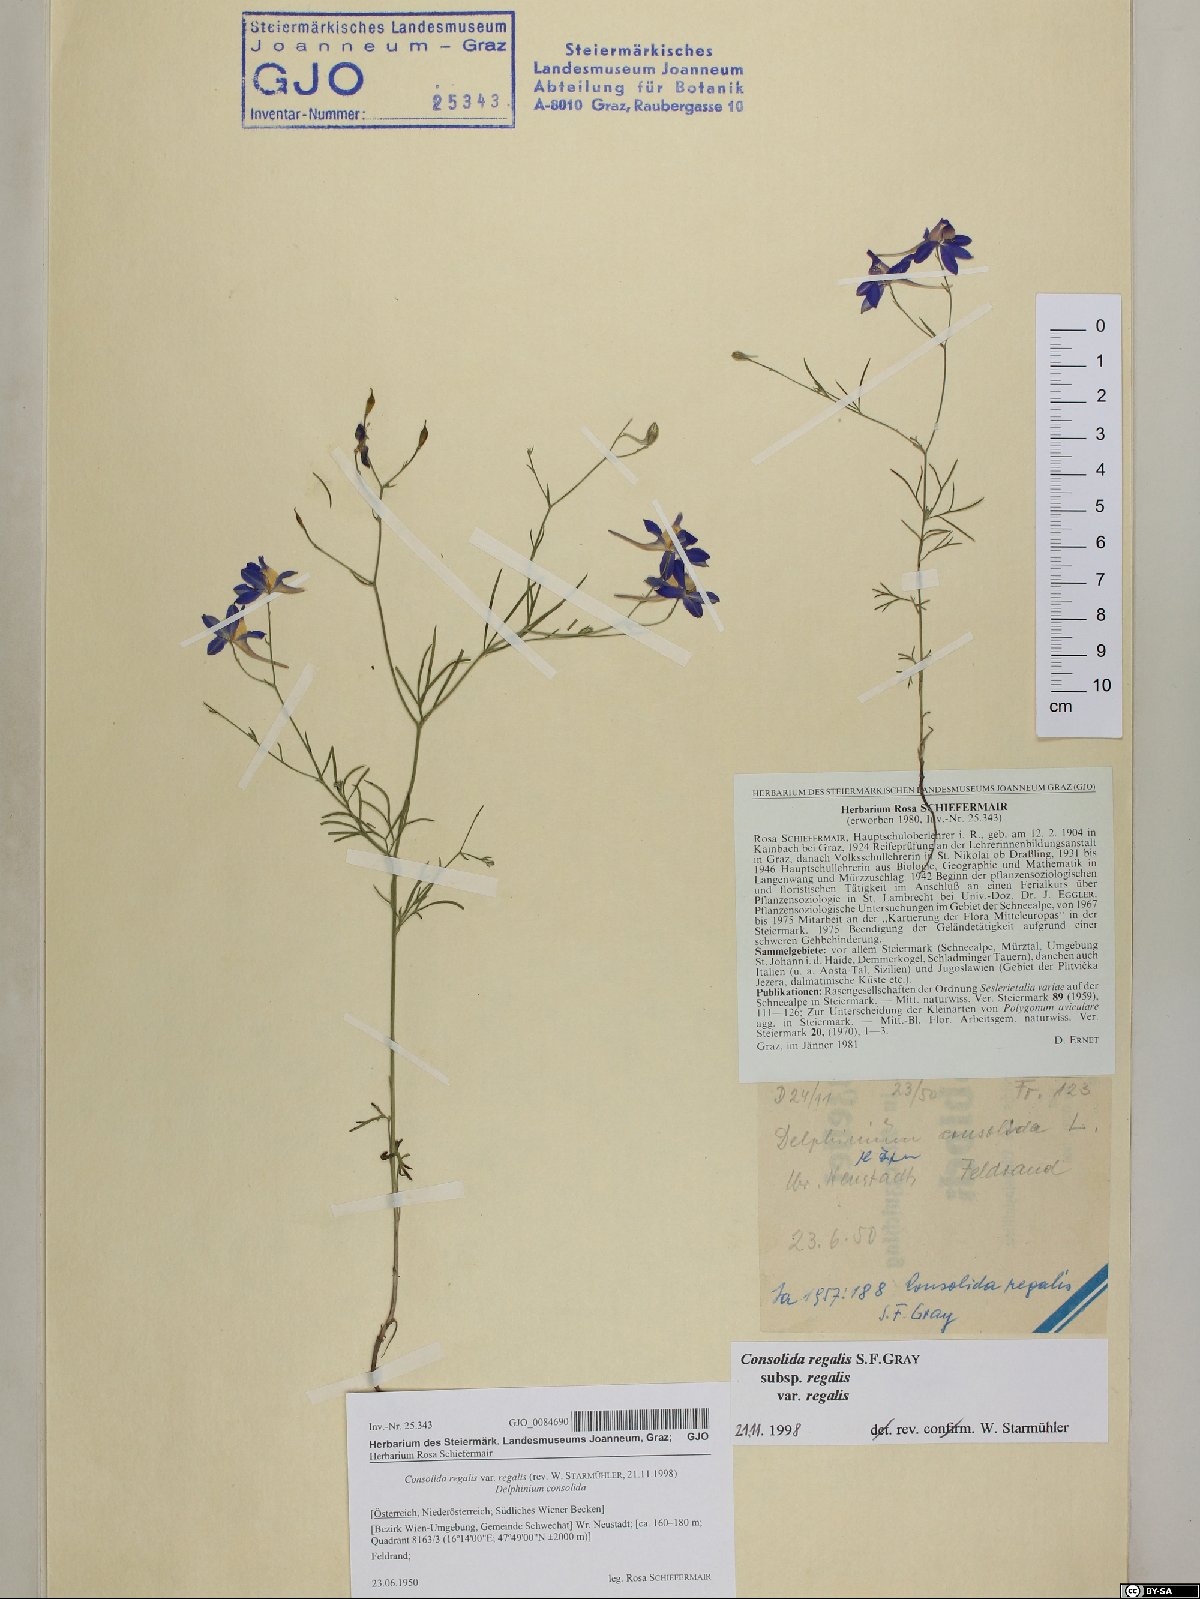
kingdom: Plantae
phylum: Tracheophyta
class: Magnoliopsida
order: Ranunculales
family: Ranunculaceae
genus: Delphinium
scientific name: Delphinium consolida
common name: Branching larkspur
